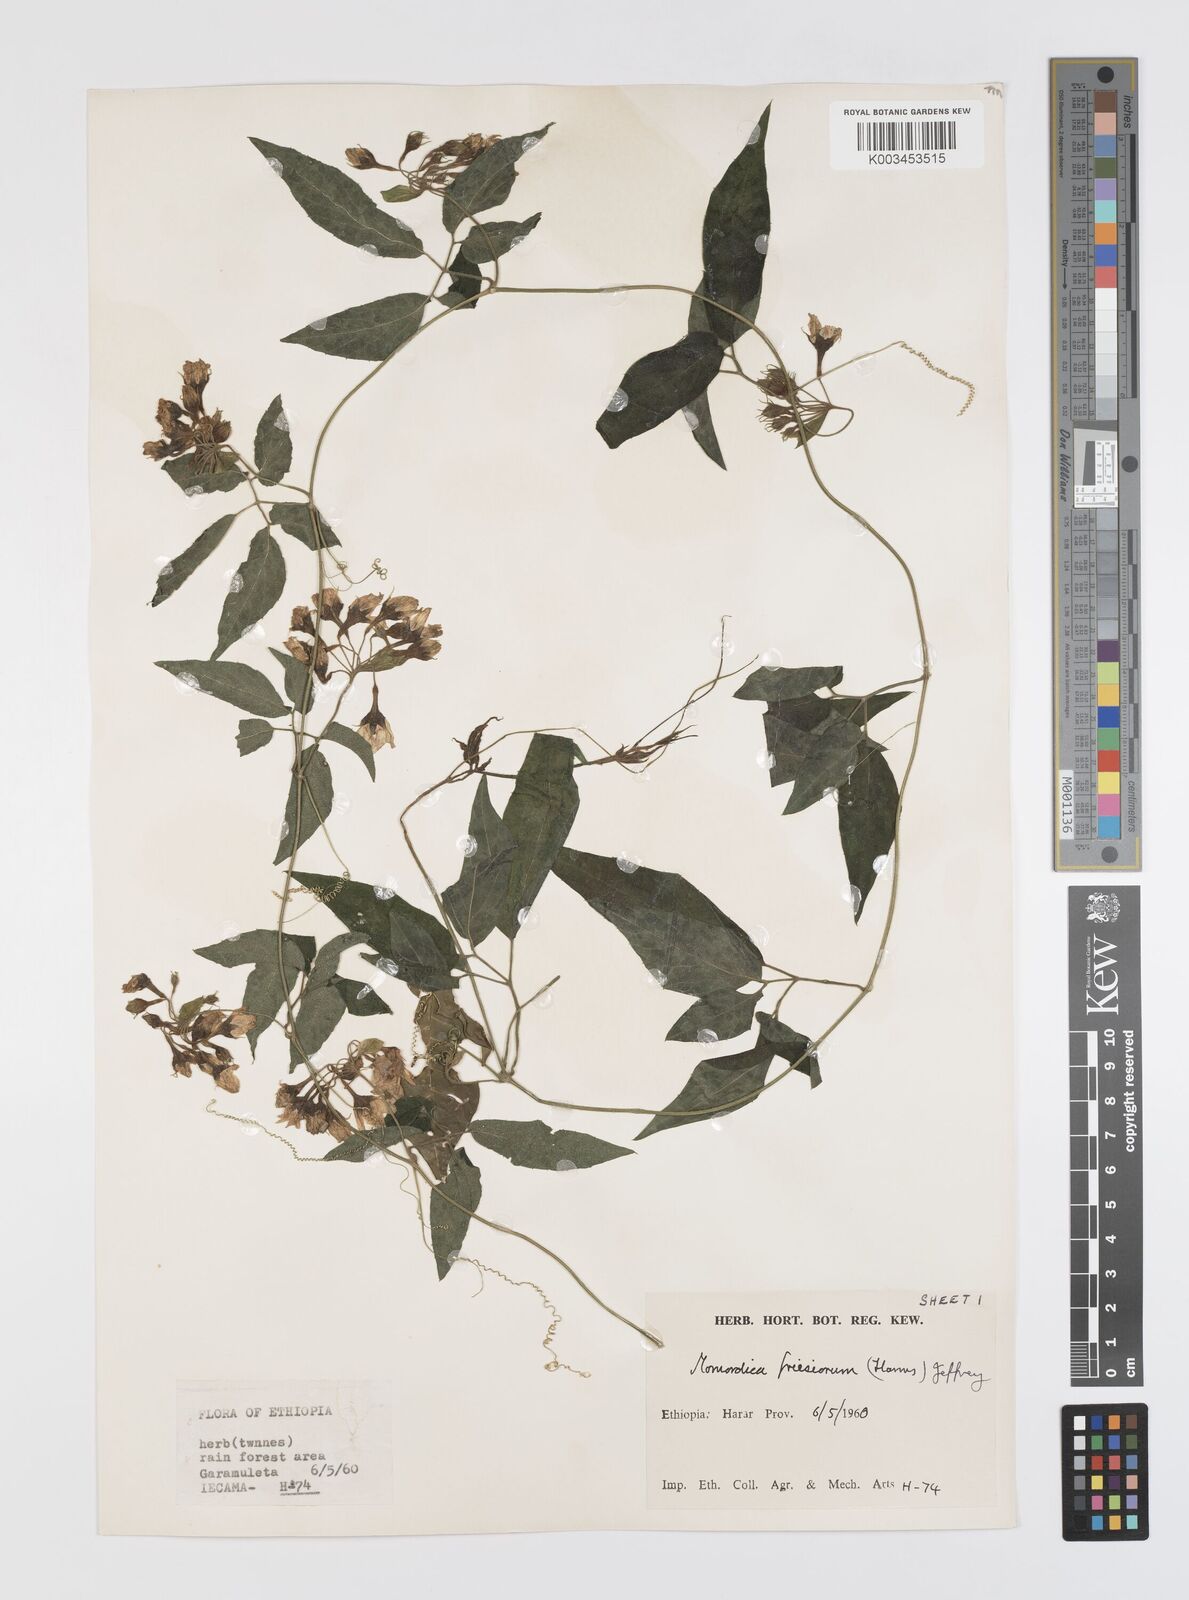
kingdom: Plantae
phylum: Tracheophyta
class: Magnoliopsida
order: Cucurbitales
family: Cucurbitaceae
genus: Momordica
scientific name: Momordica friesiorum
